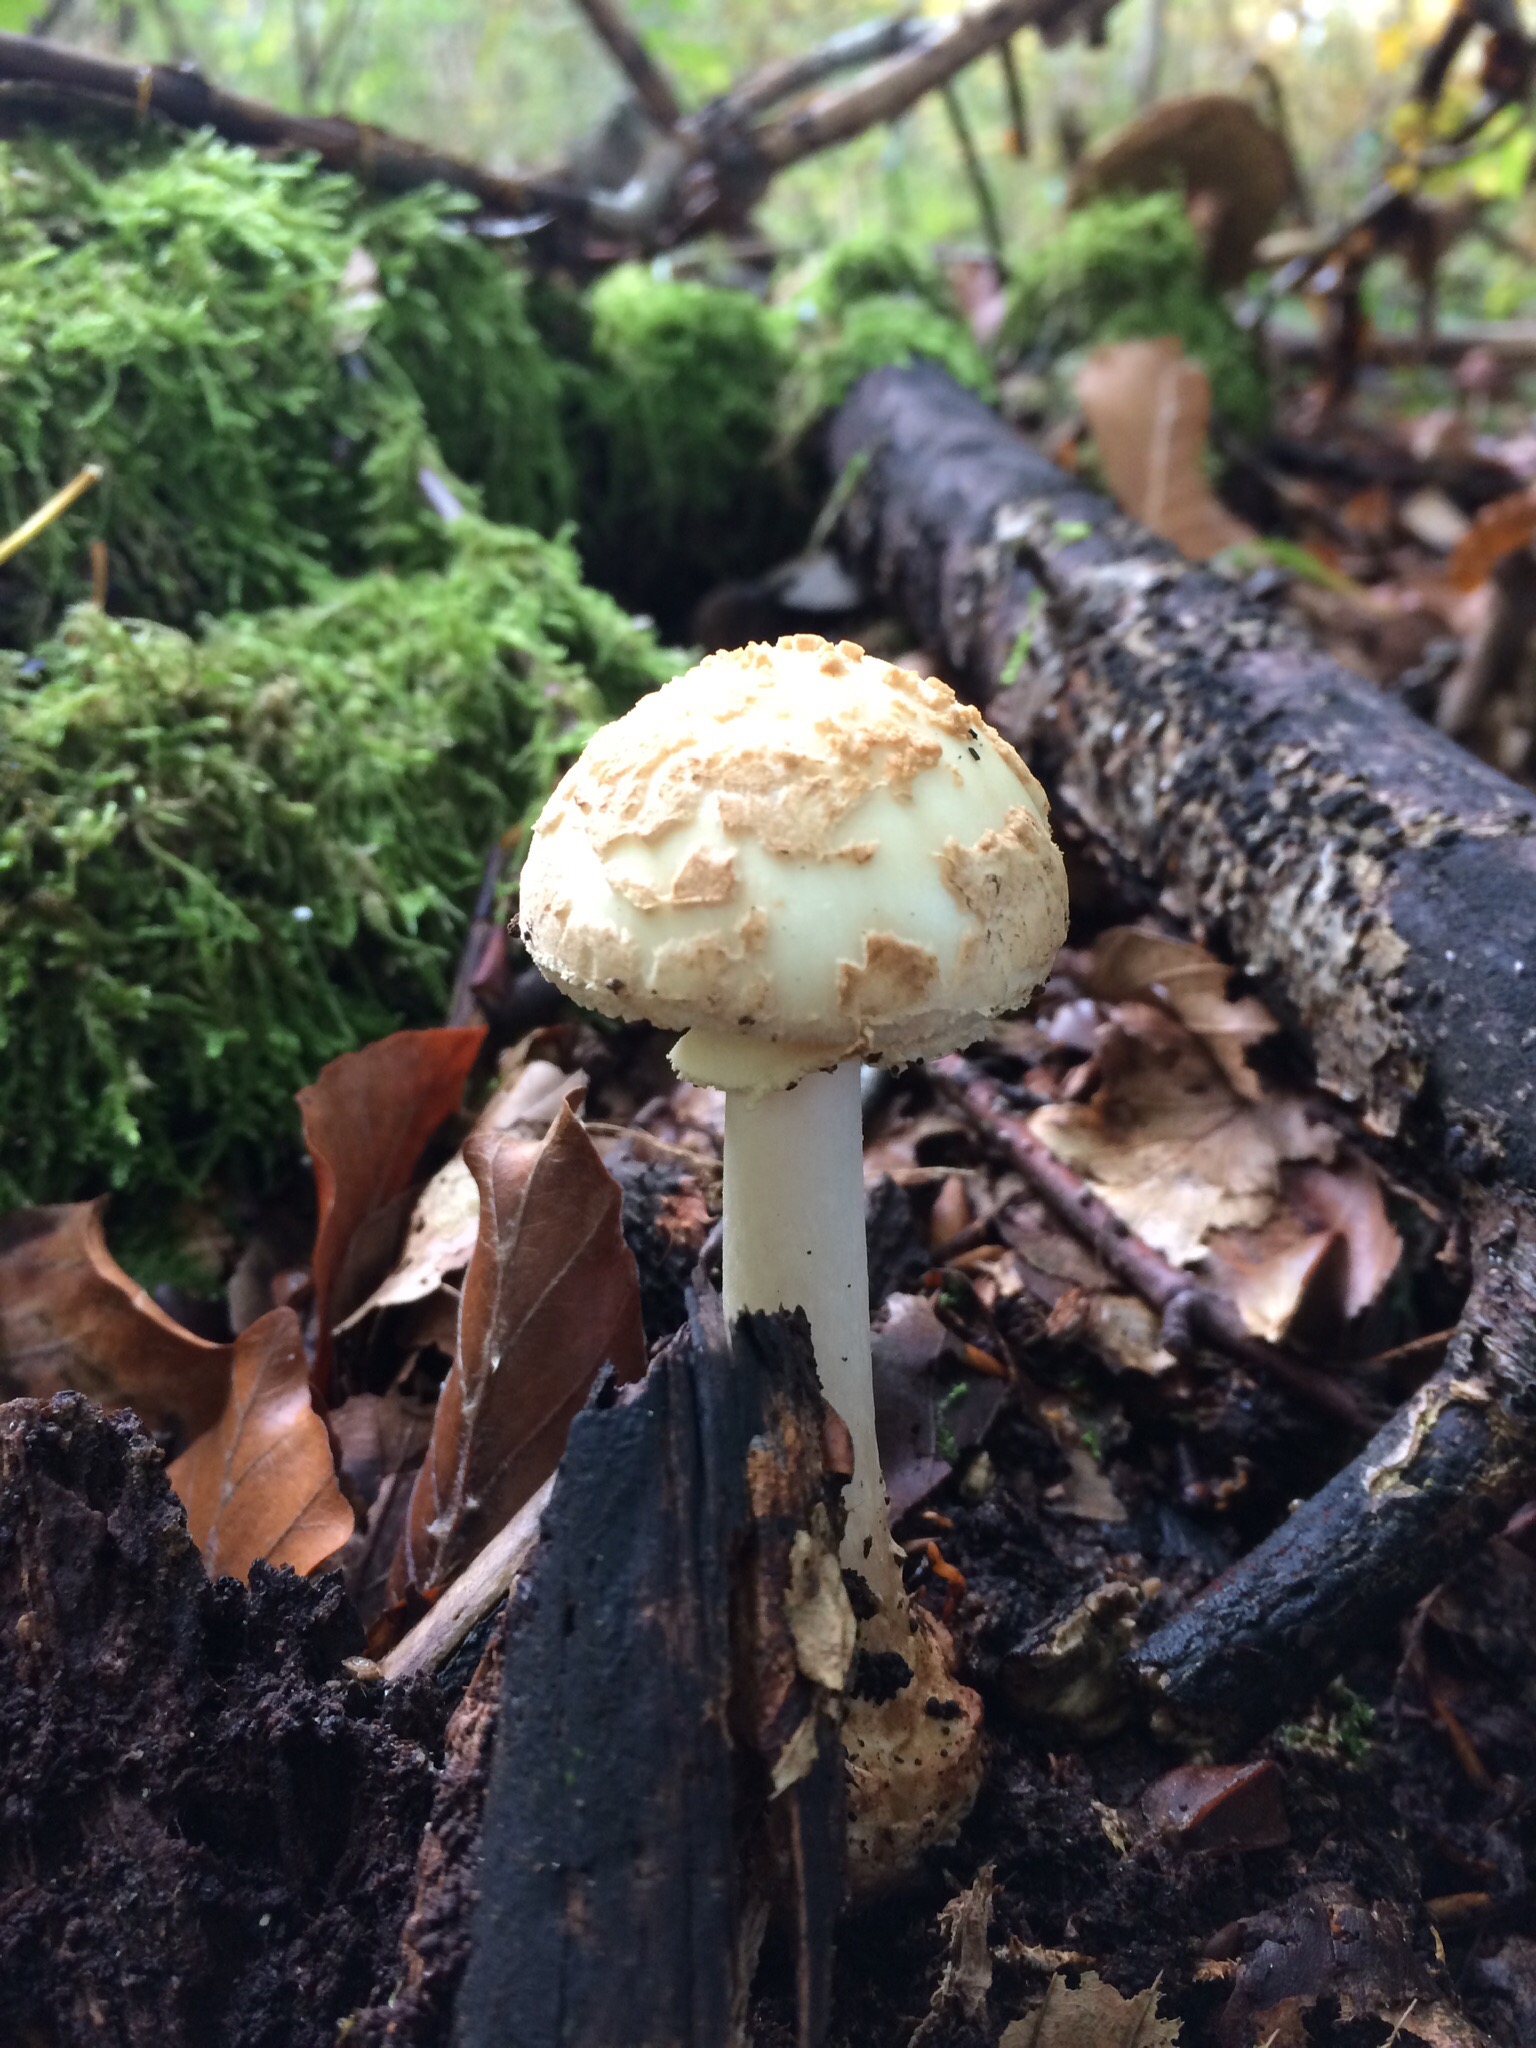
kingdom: Fungi
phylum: Basidiomycota
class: Agaricomycetes
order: Agaricales
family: Amanitaceae
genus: Amanita
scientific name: Amanita citrina
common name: kugleknoldet fluesvamp
